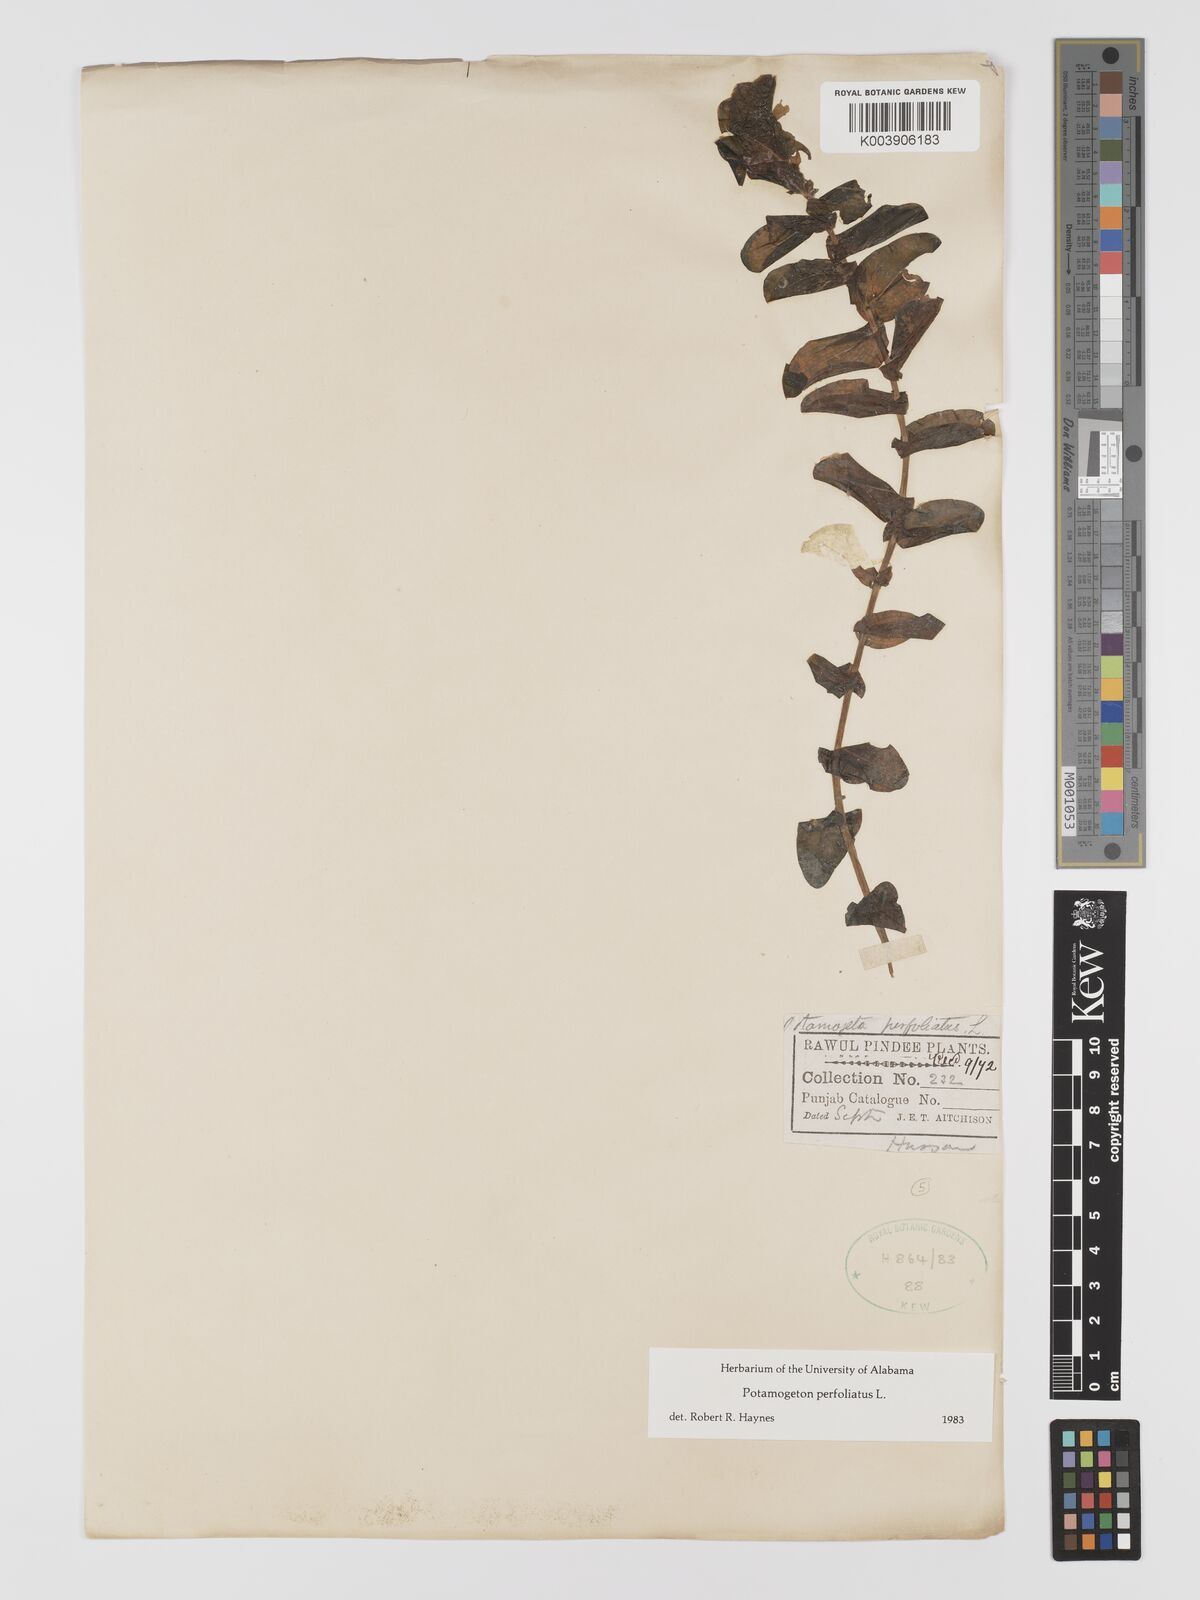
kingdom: Plantae
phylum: Tracheophyta
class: Liliopsida
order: Alismatales
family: Potamogetonaceae
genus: Potamogeton
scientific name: Potamogeton perfoliatus
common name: Perfoliate pondweed
